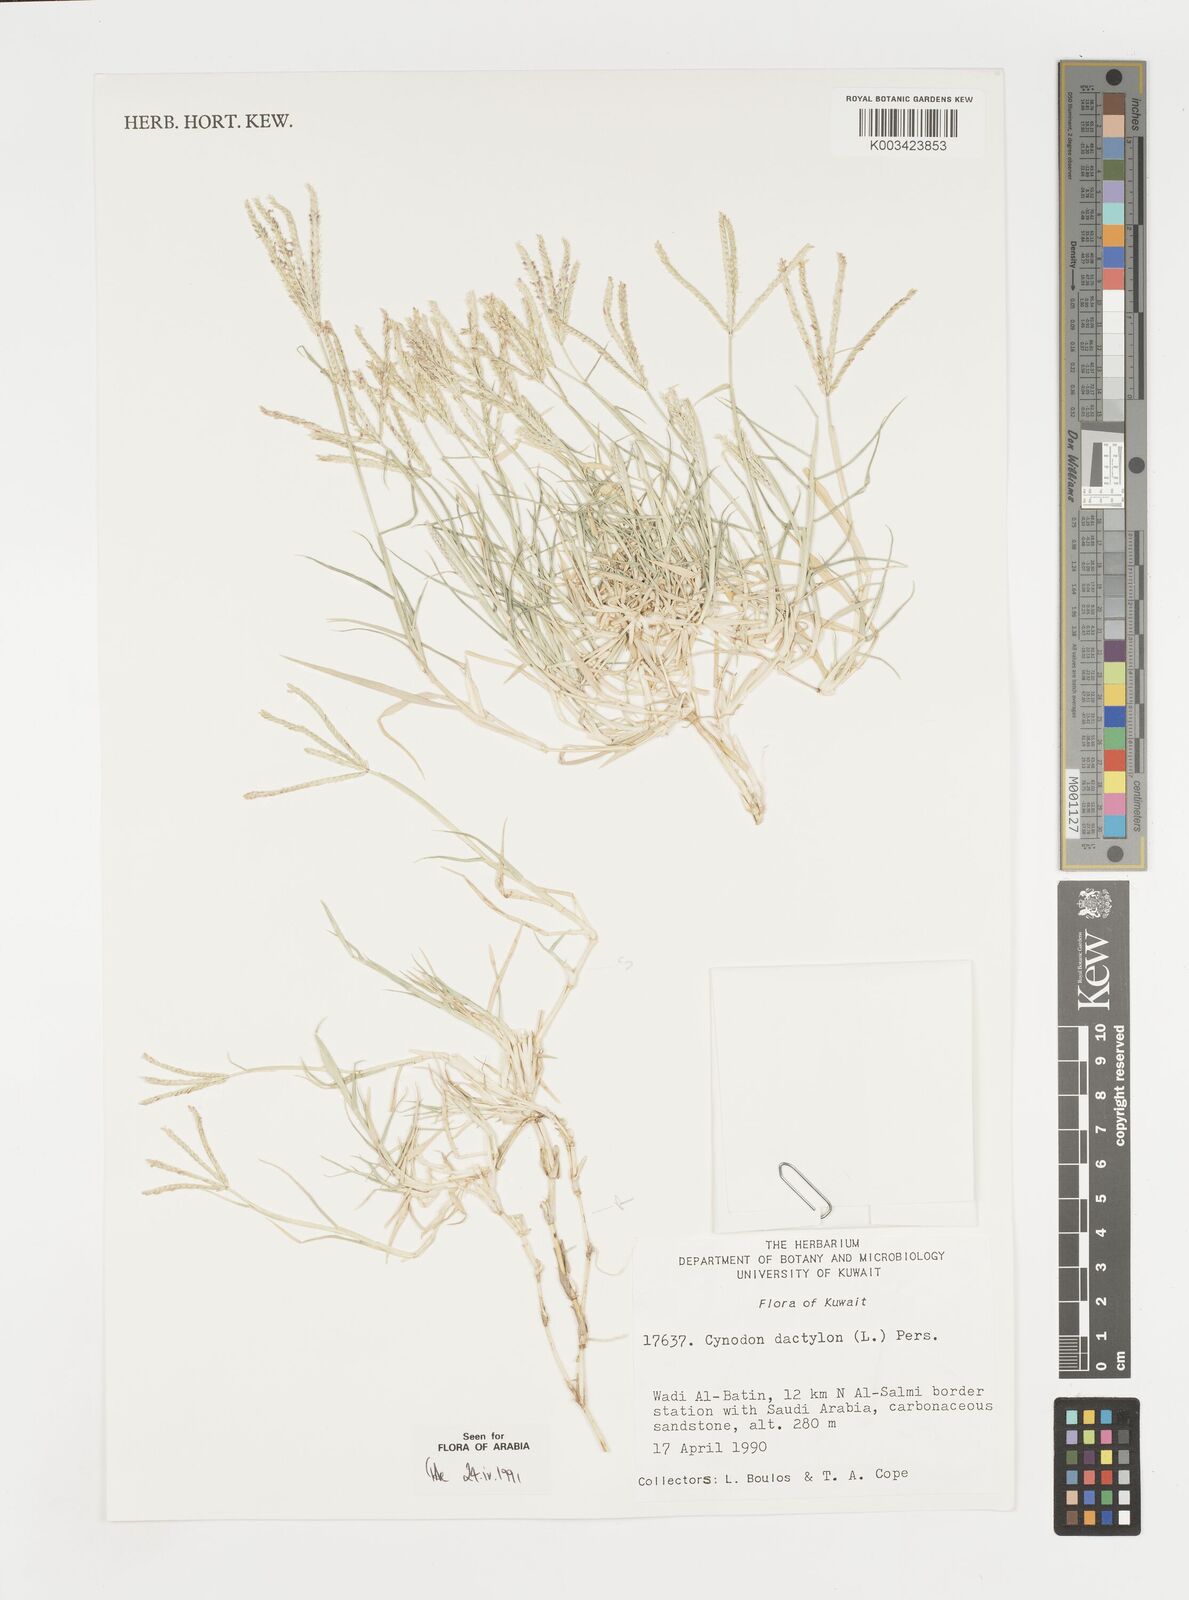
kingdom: Plantae
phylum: Tracheophyta
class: Liliopsida
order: Poales
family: Poaceae
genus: Cynodon
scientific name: Cynodon dactylon
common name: Bermuda grass
